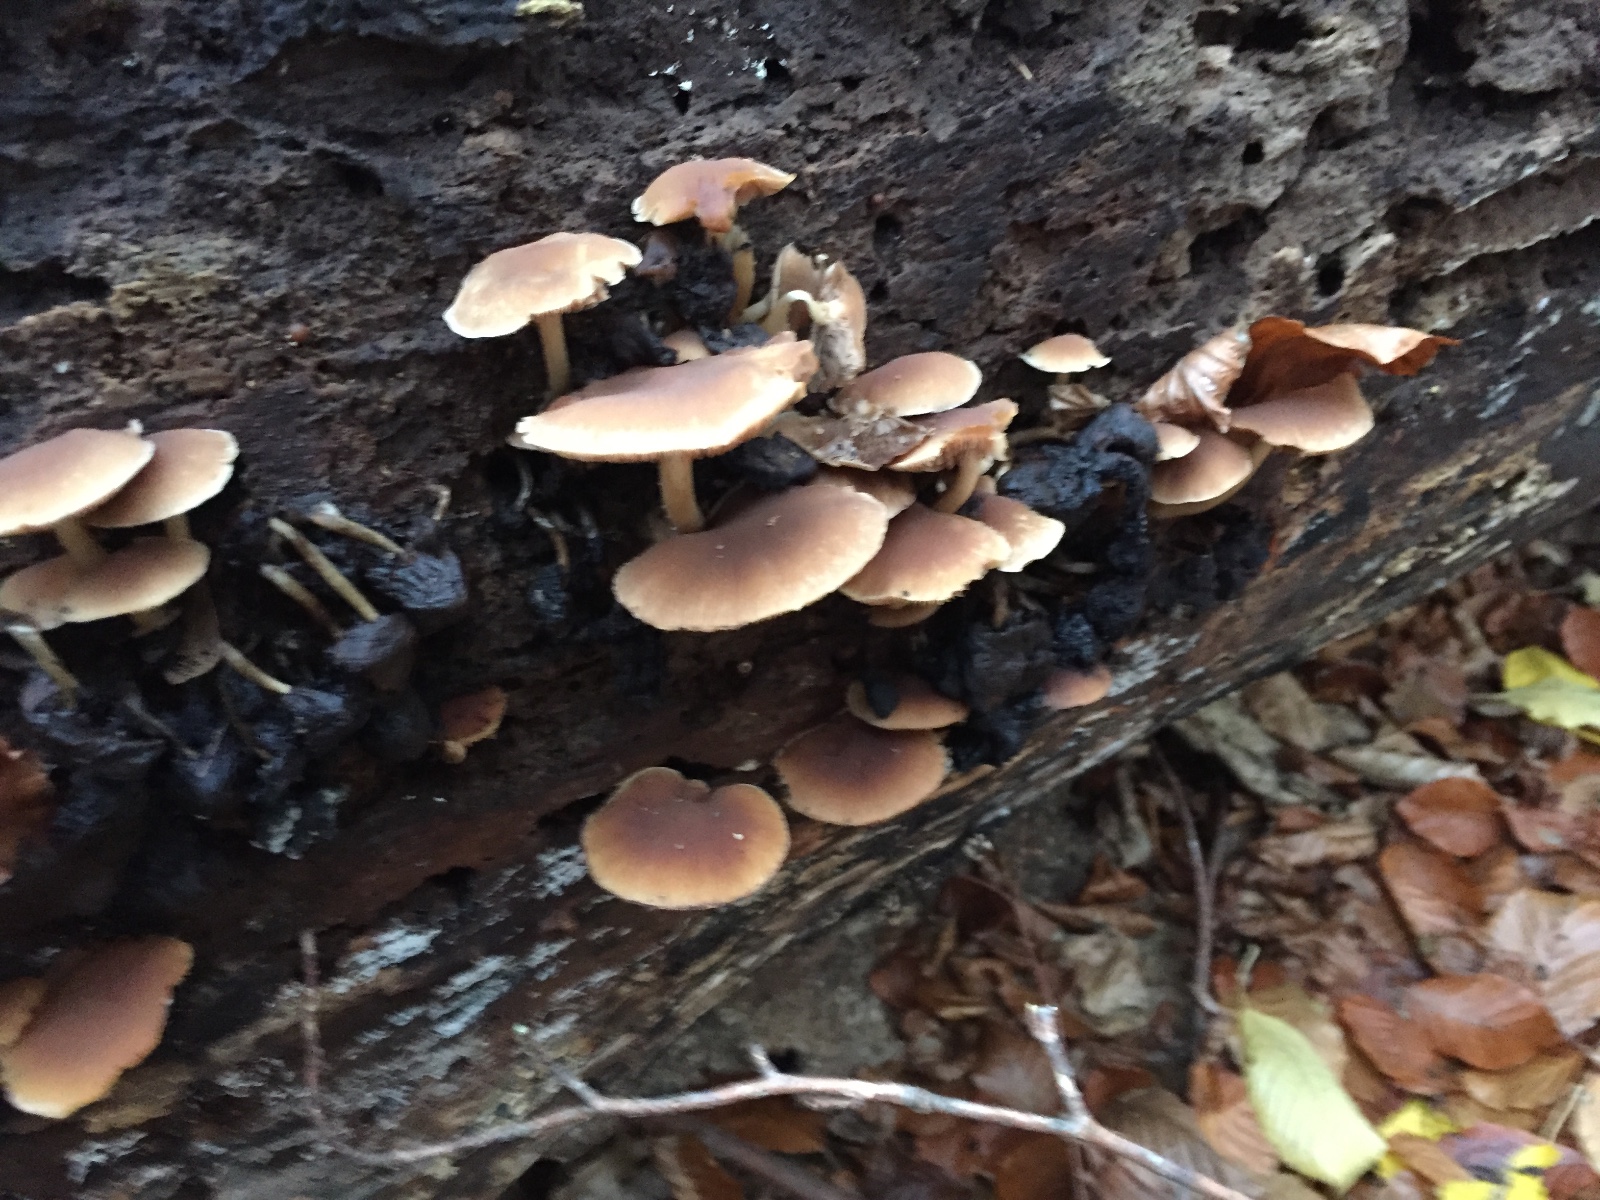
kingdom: Fungi
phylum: Basidiomycota
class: Agaricomycetes
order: Agaricales
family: Psathyrellaceae
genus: Psathyrella
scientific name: Psathyrella piluliformis
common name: lysstokket mørkhat
